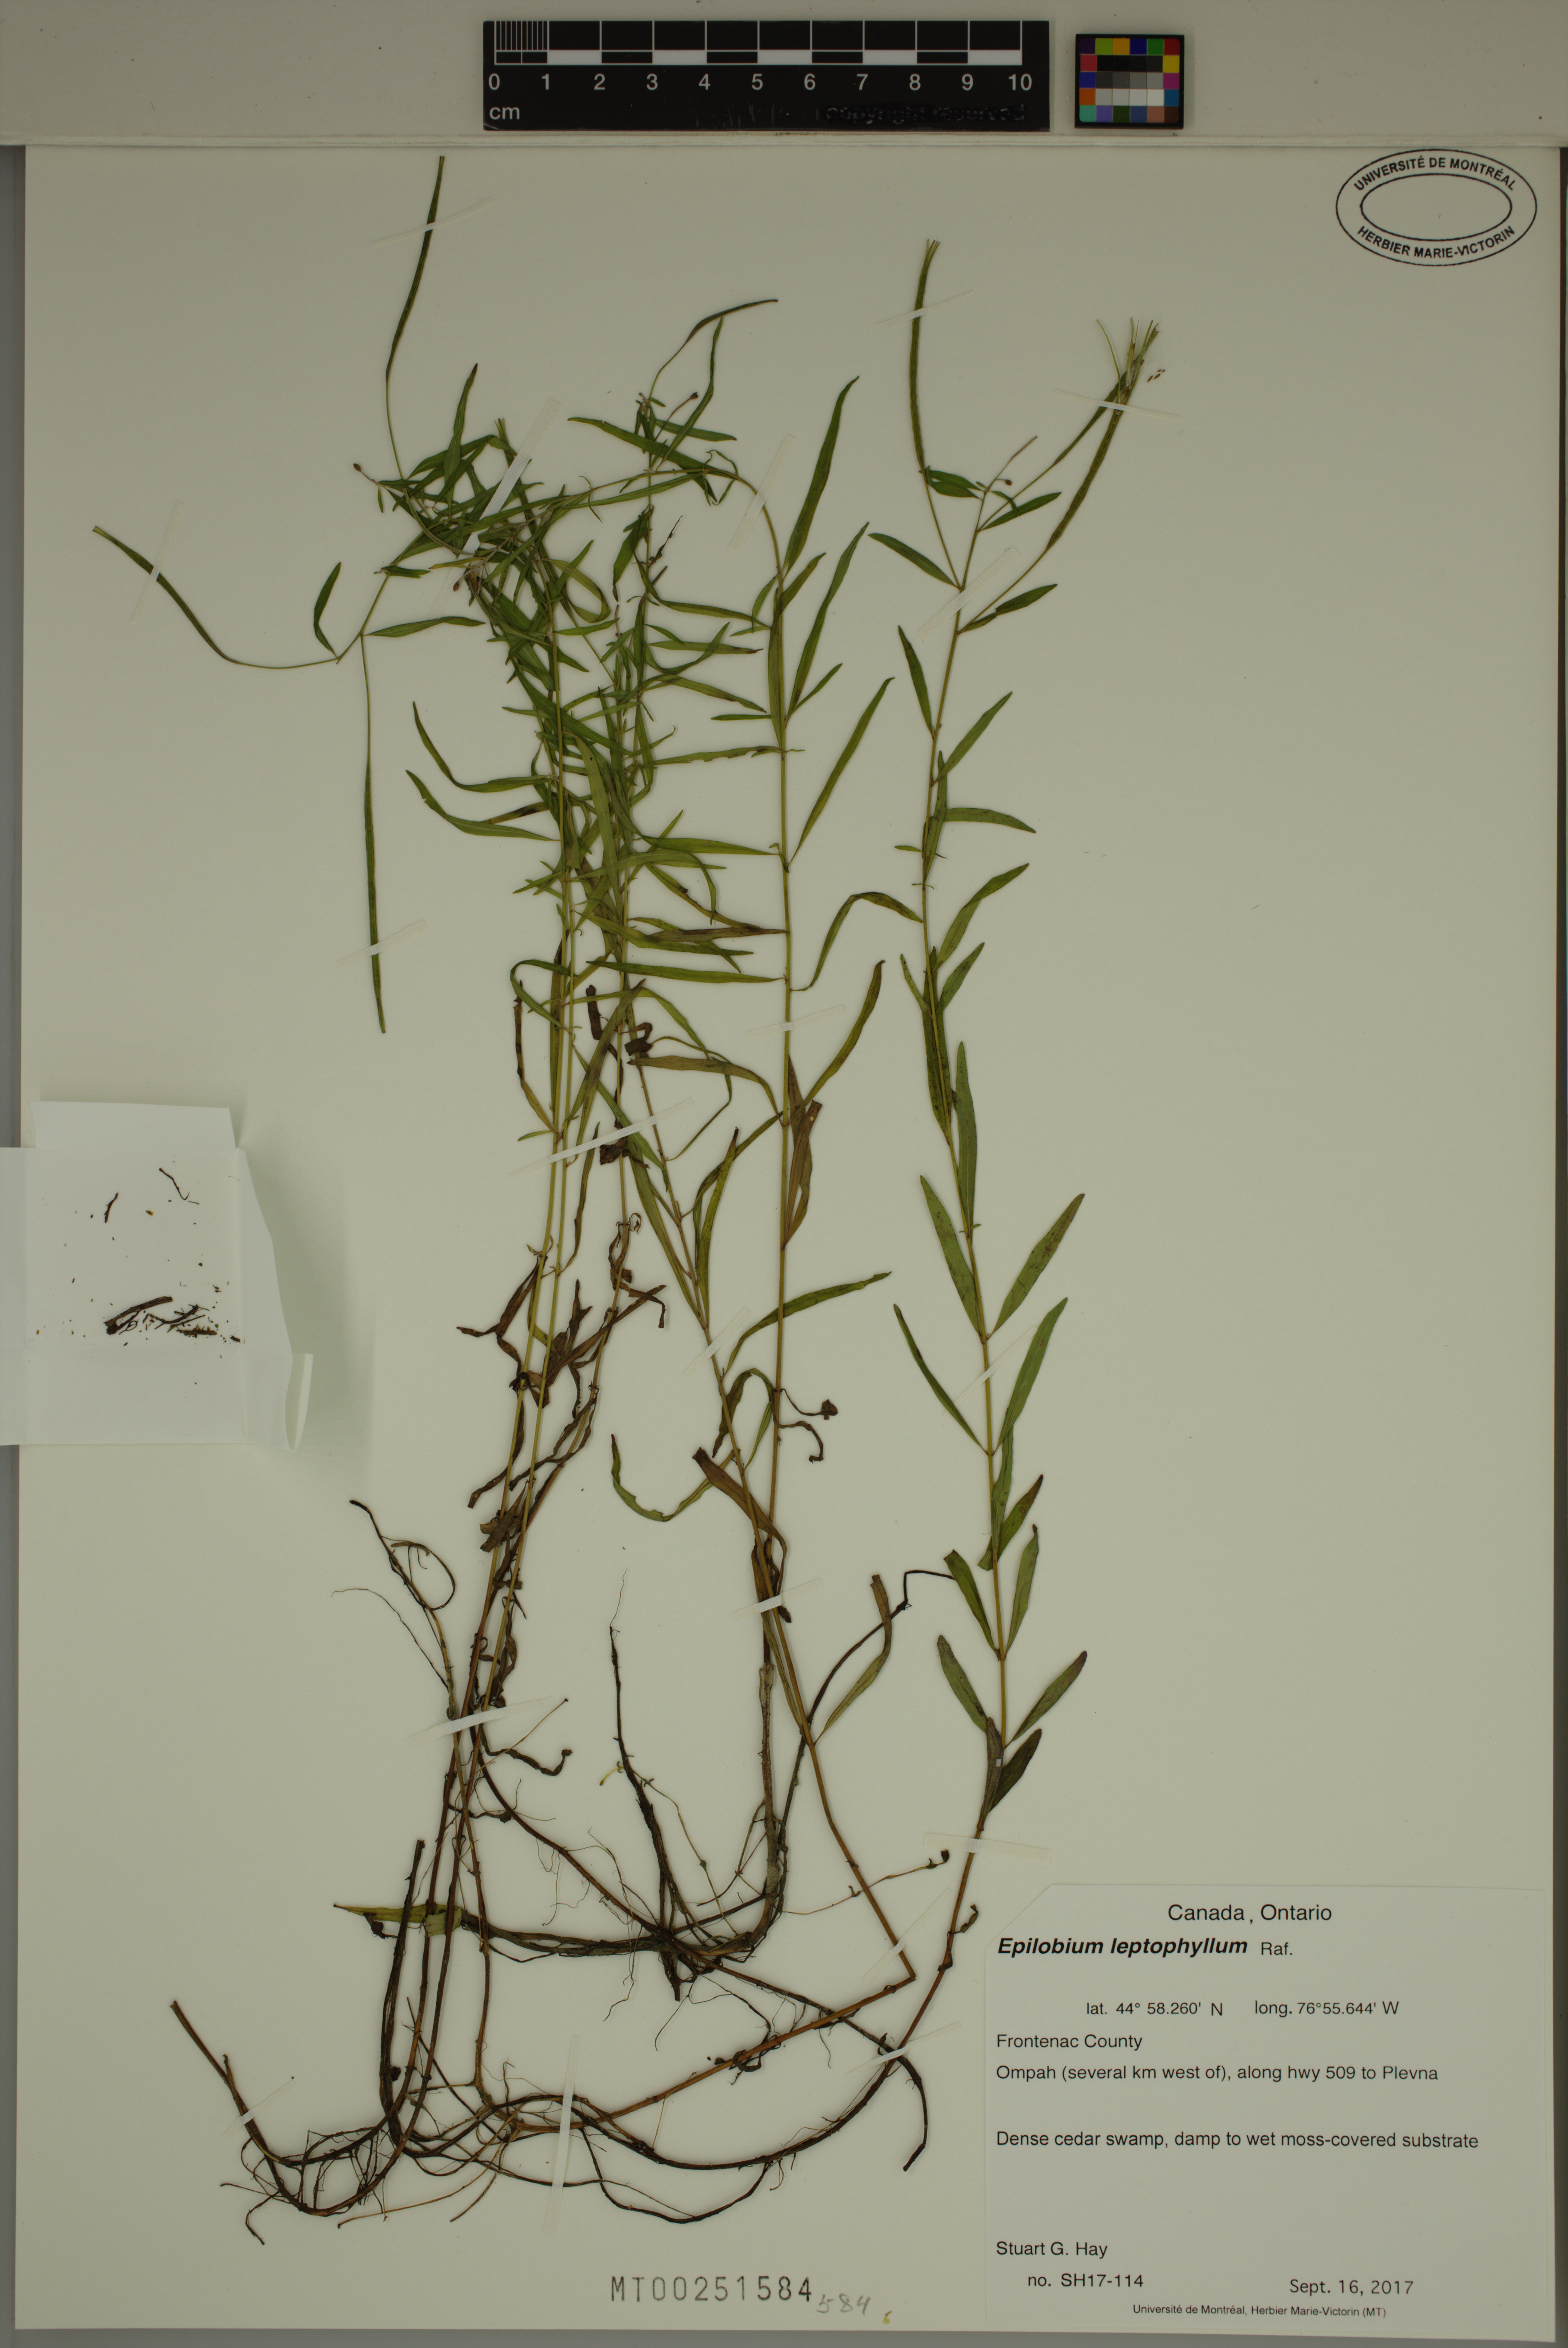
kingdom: Plantae
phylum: Tracheophyta
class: Magnoliopsida
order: Myrtales
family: Onagraceae
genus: Epilobium
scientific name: Epilobium leptophyllum
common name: Bog willowherb
